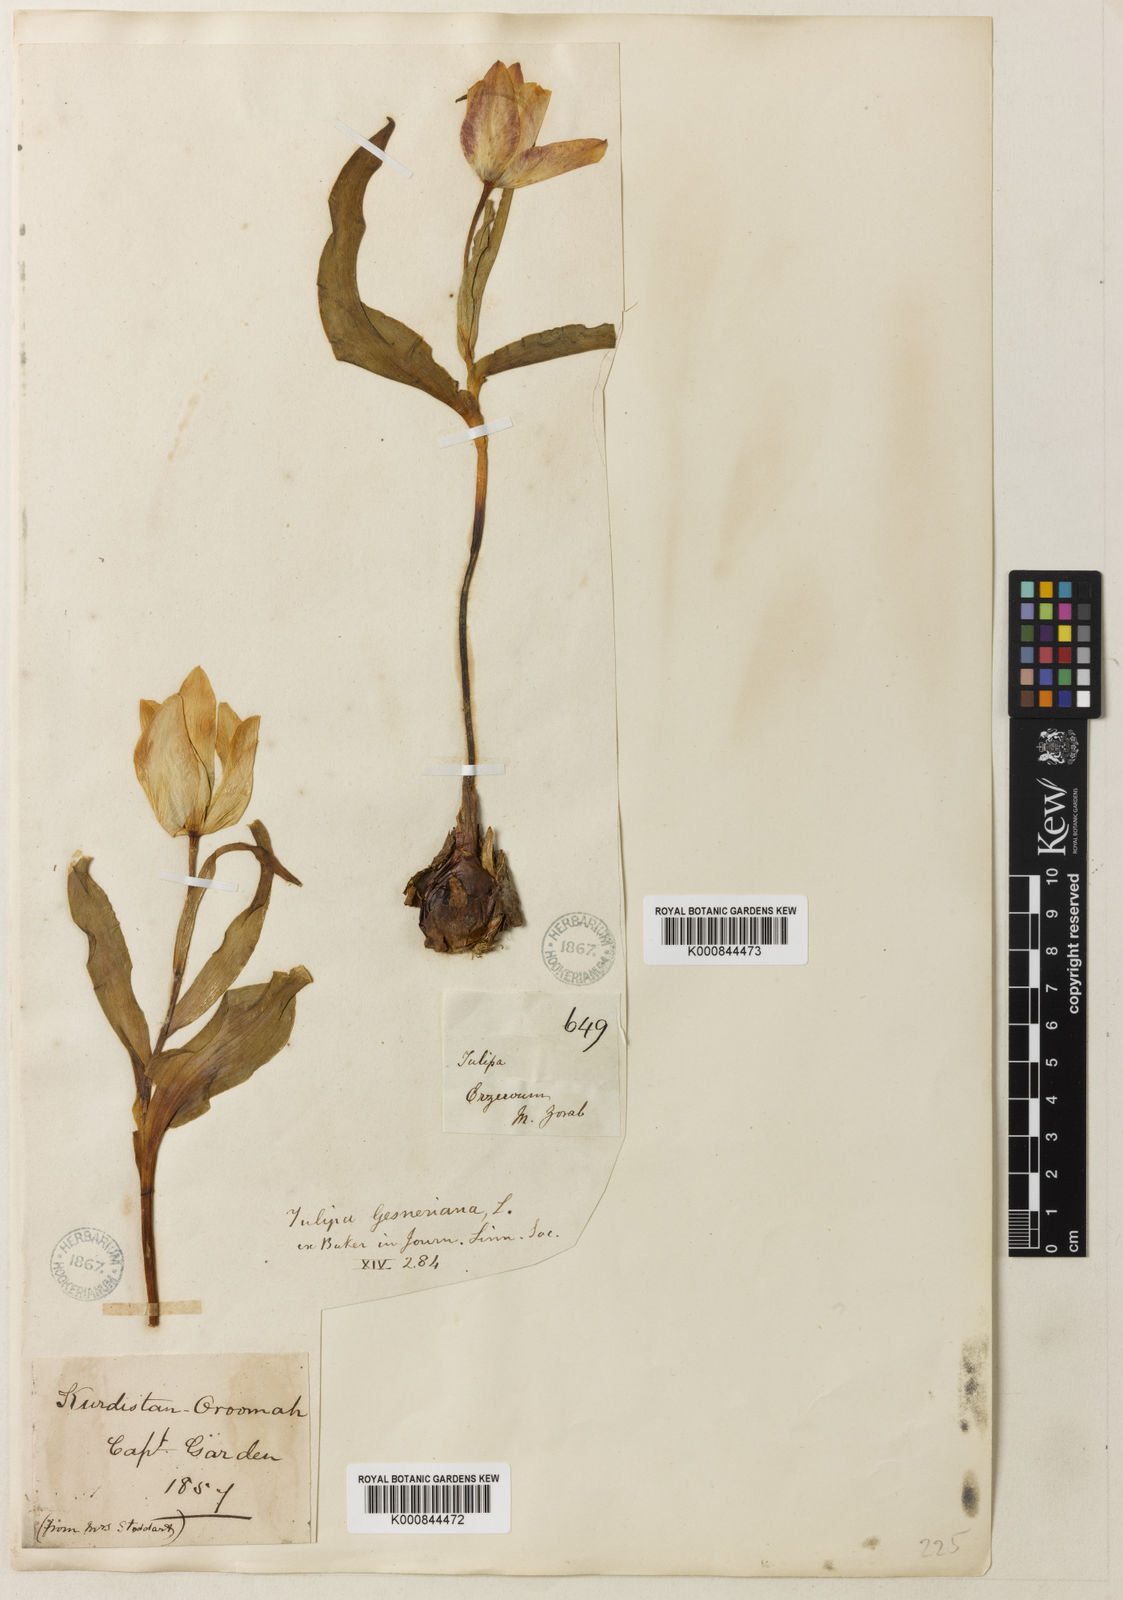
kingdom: Plantae
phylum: Tracheophyta
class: Liliopsida
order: Liliales
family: Liliaceae
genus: Tulipa
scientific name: Tulipa armena
